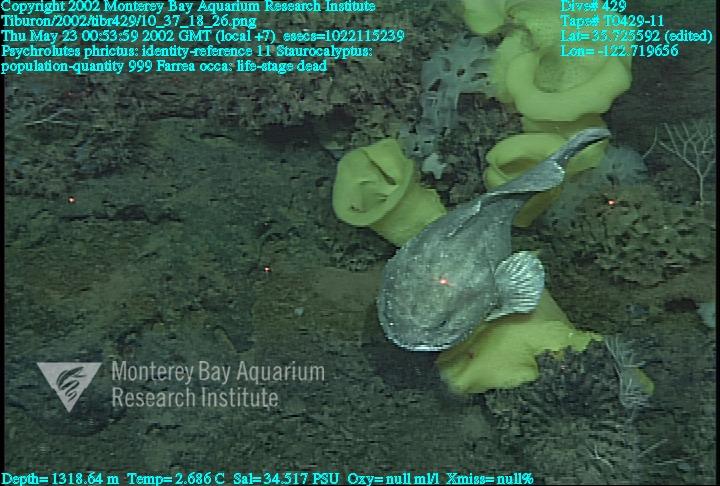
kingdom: Animalia
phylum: Porifera
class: Hexactinellida
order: Lyssacinosida
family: Rossellidae
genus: Staurocalyptus
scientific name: Staurocalyptus
